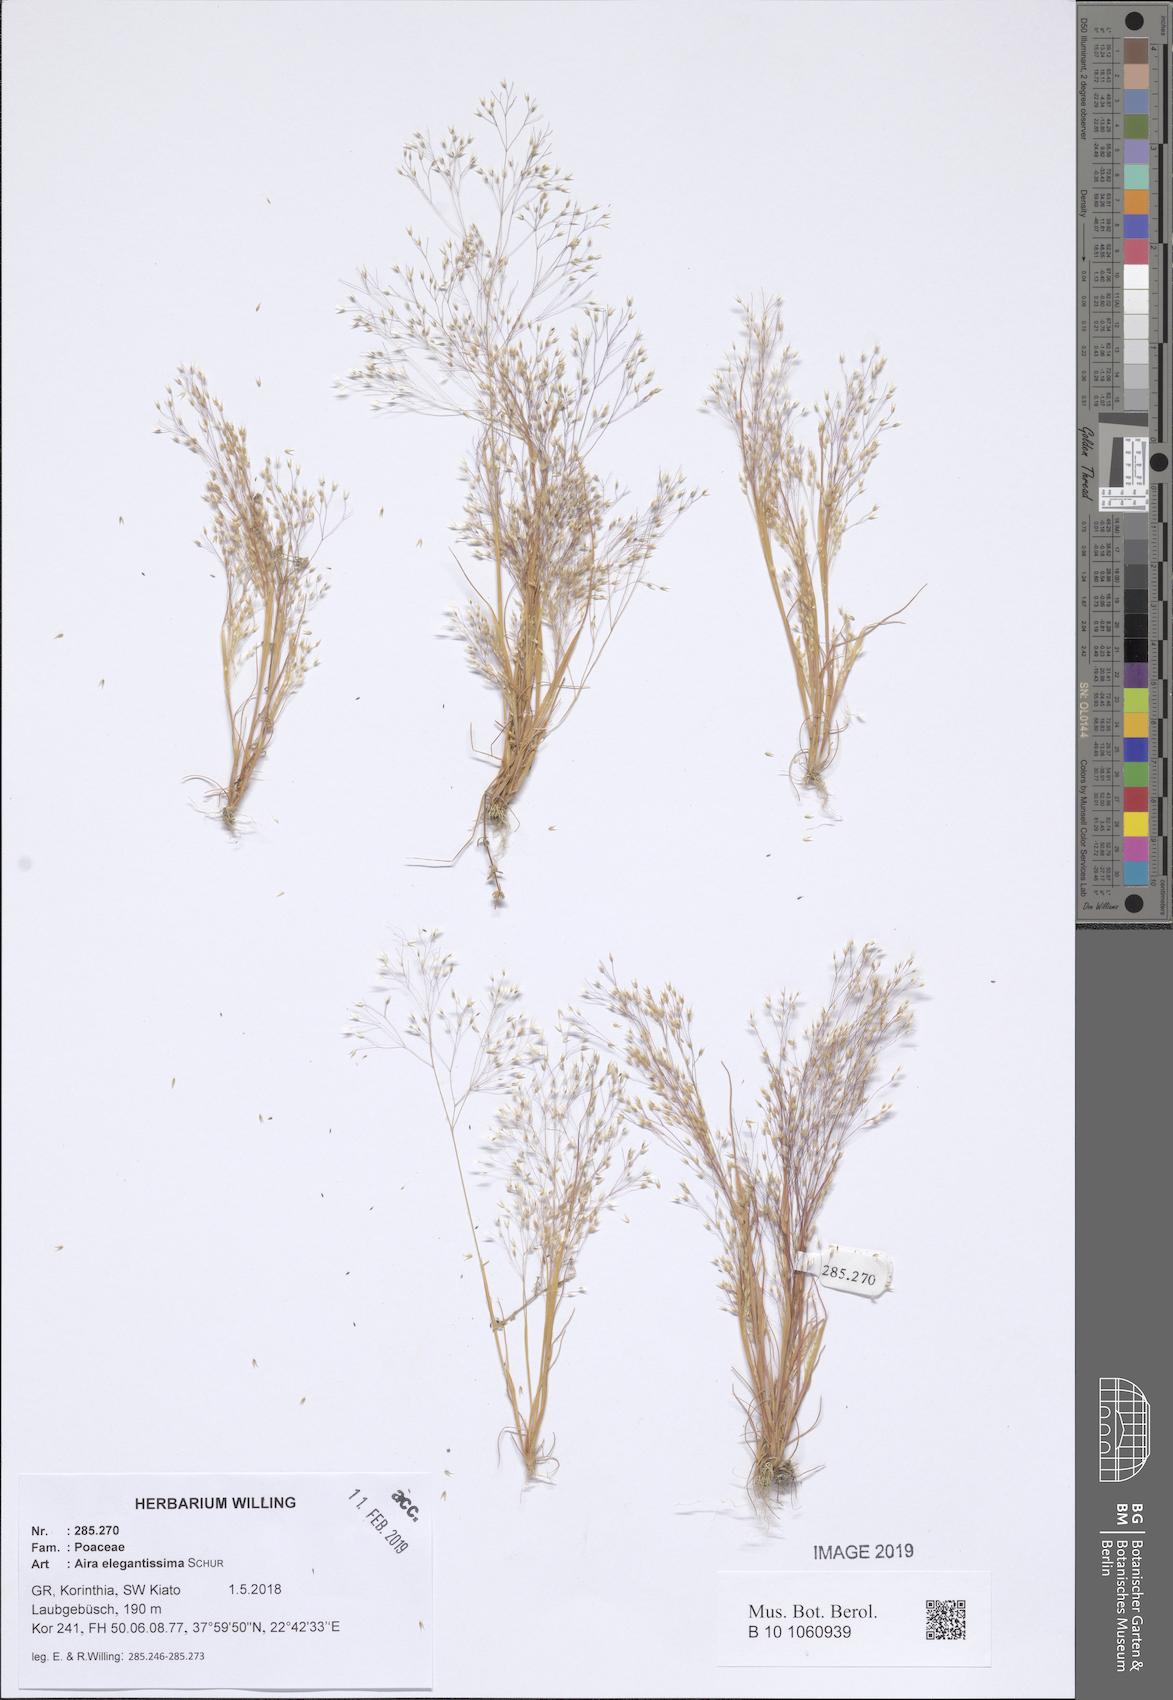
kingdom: Plantae
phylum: Tracheophyta
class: Liliopsida
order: Poales
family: Poaceae
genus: Aira
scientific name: Aira elegans
